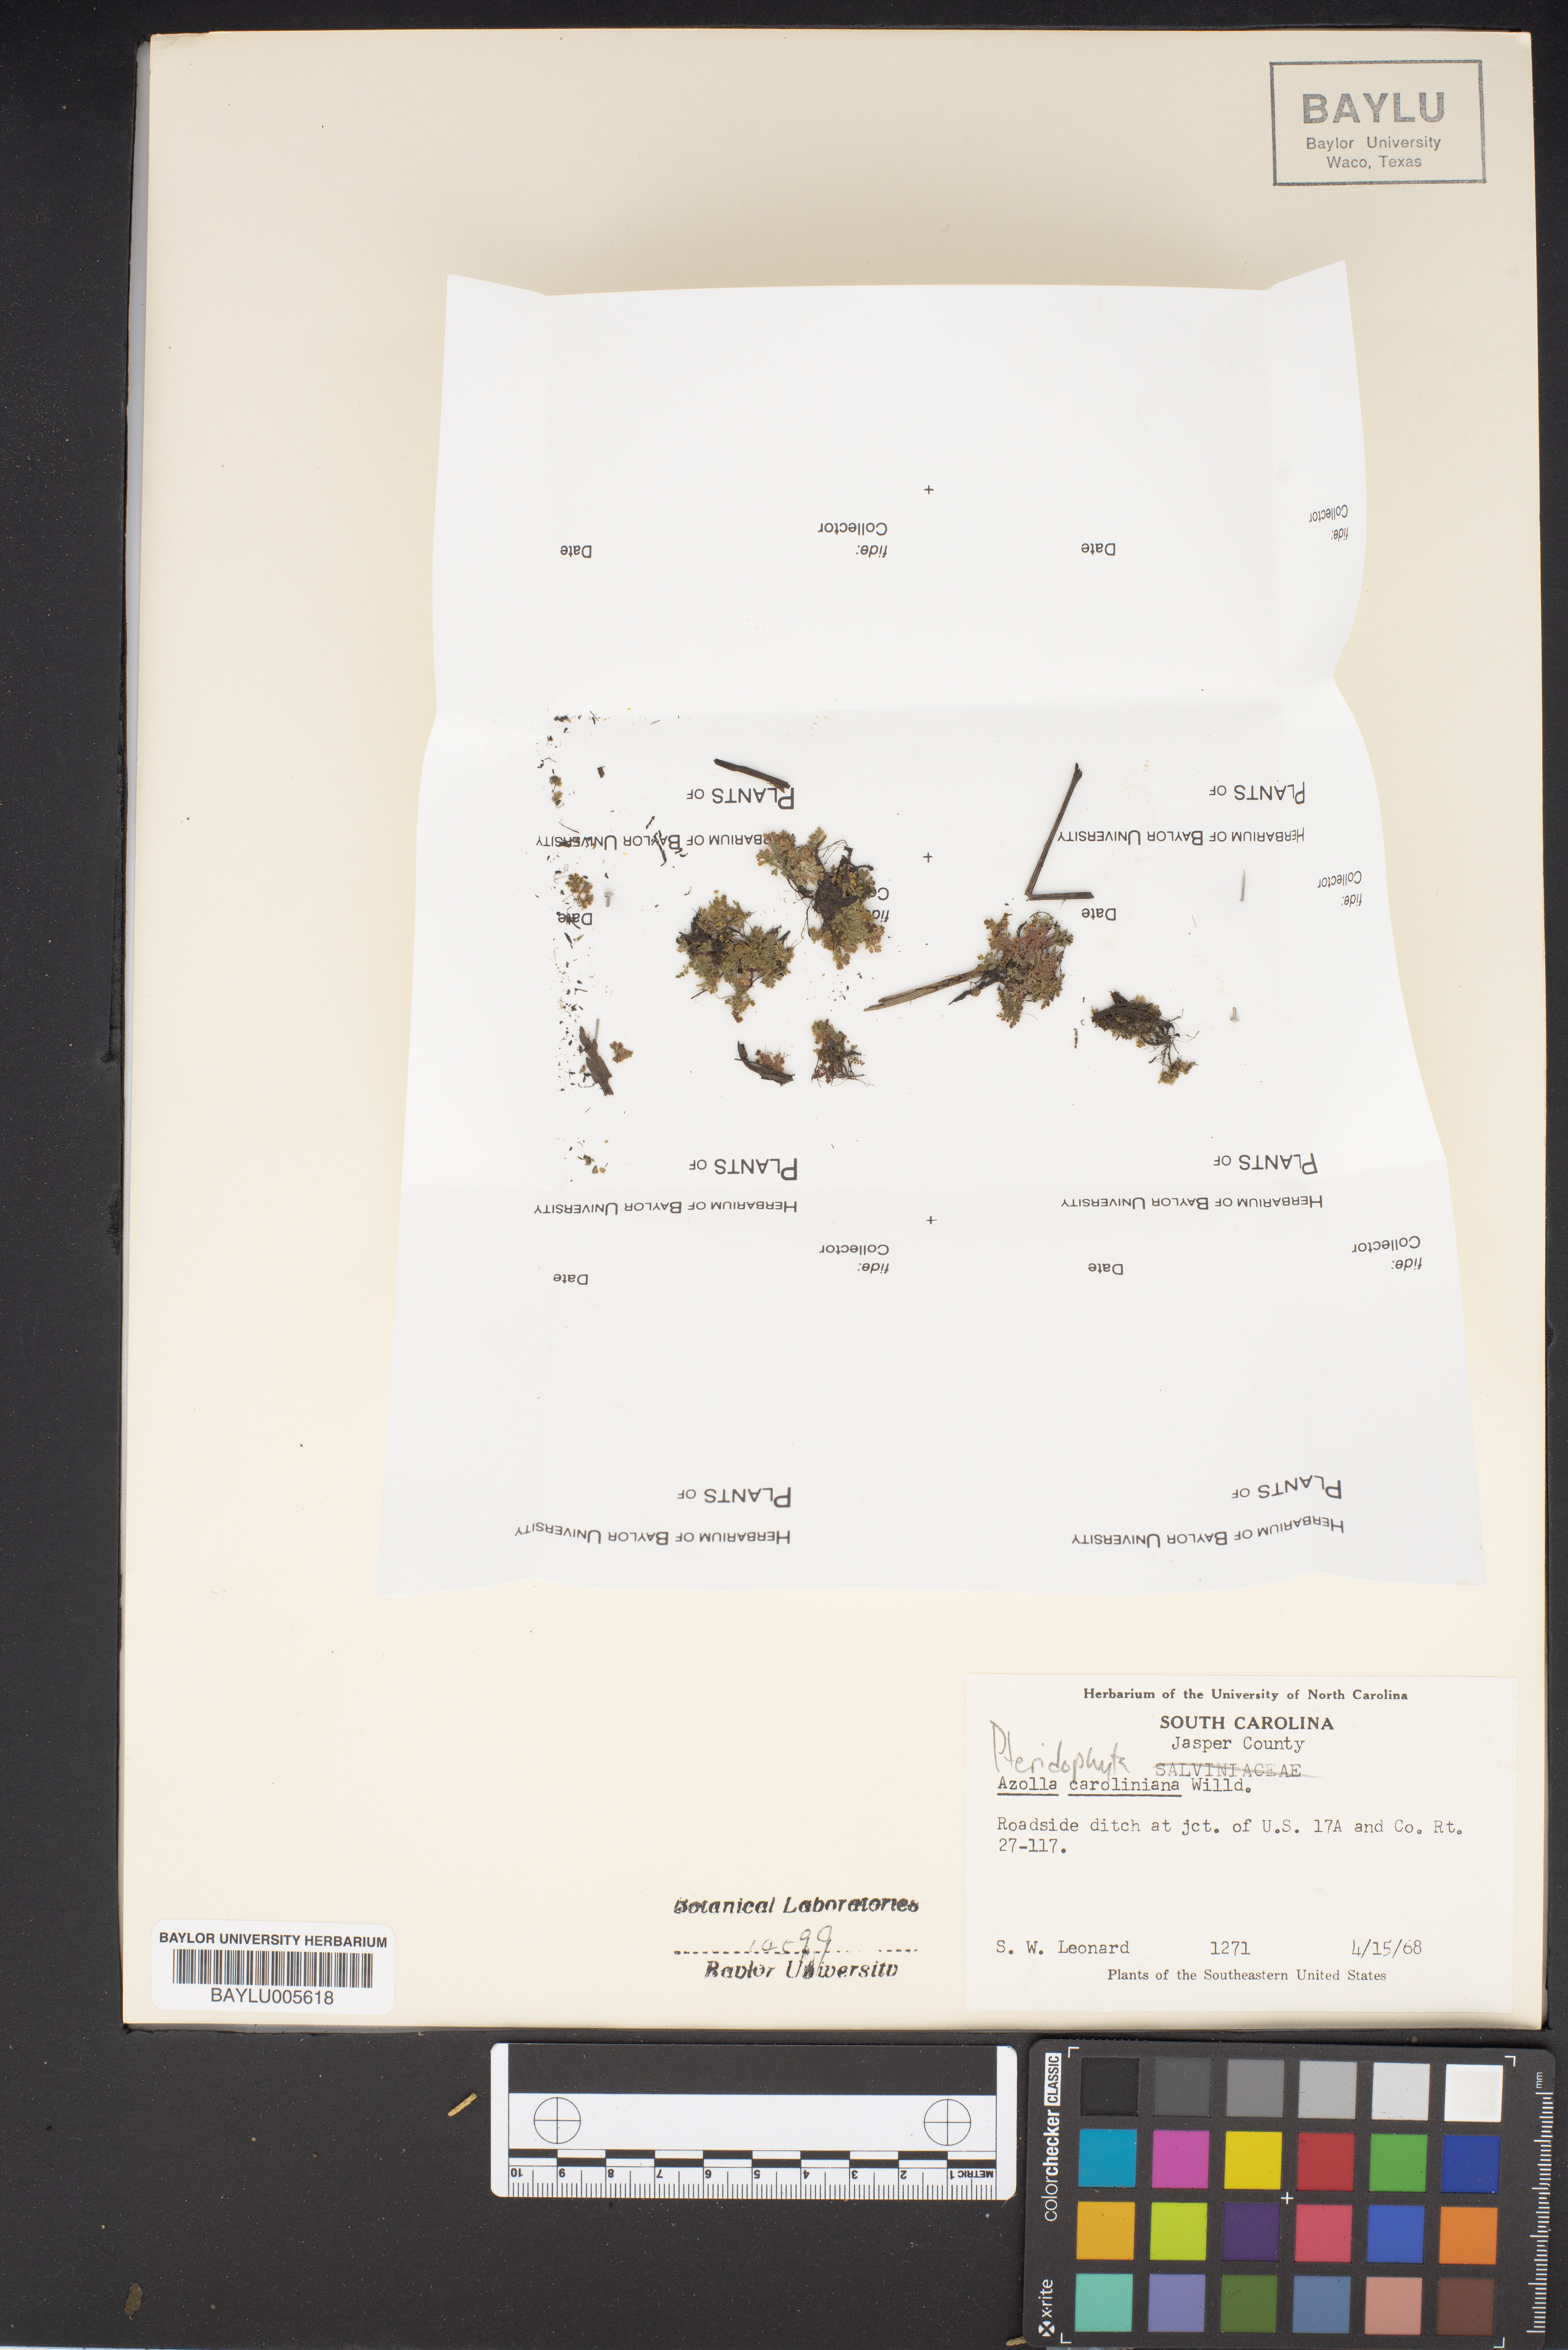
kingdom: Plantae
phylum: Tracheophyta
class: Polypodiopsida
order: Salviniales
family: Salviniaceae
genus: Azolla
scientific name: Azolla caroliniana
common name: Carolina mosquitofern
